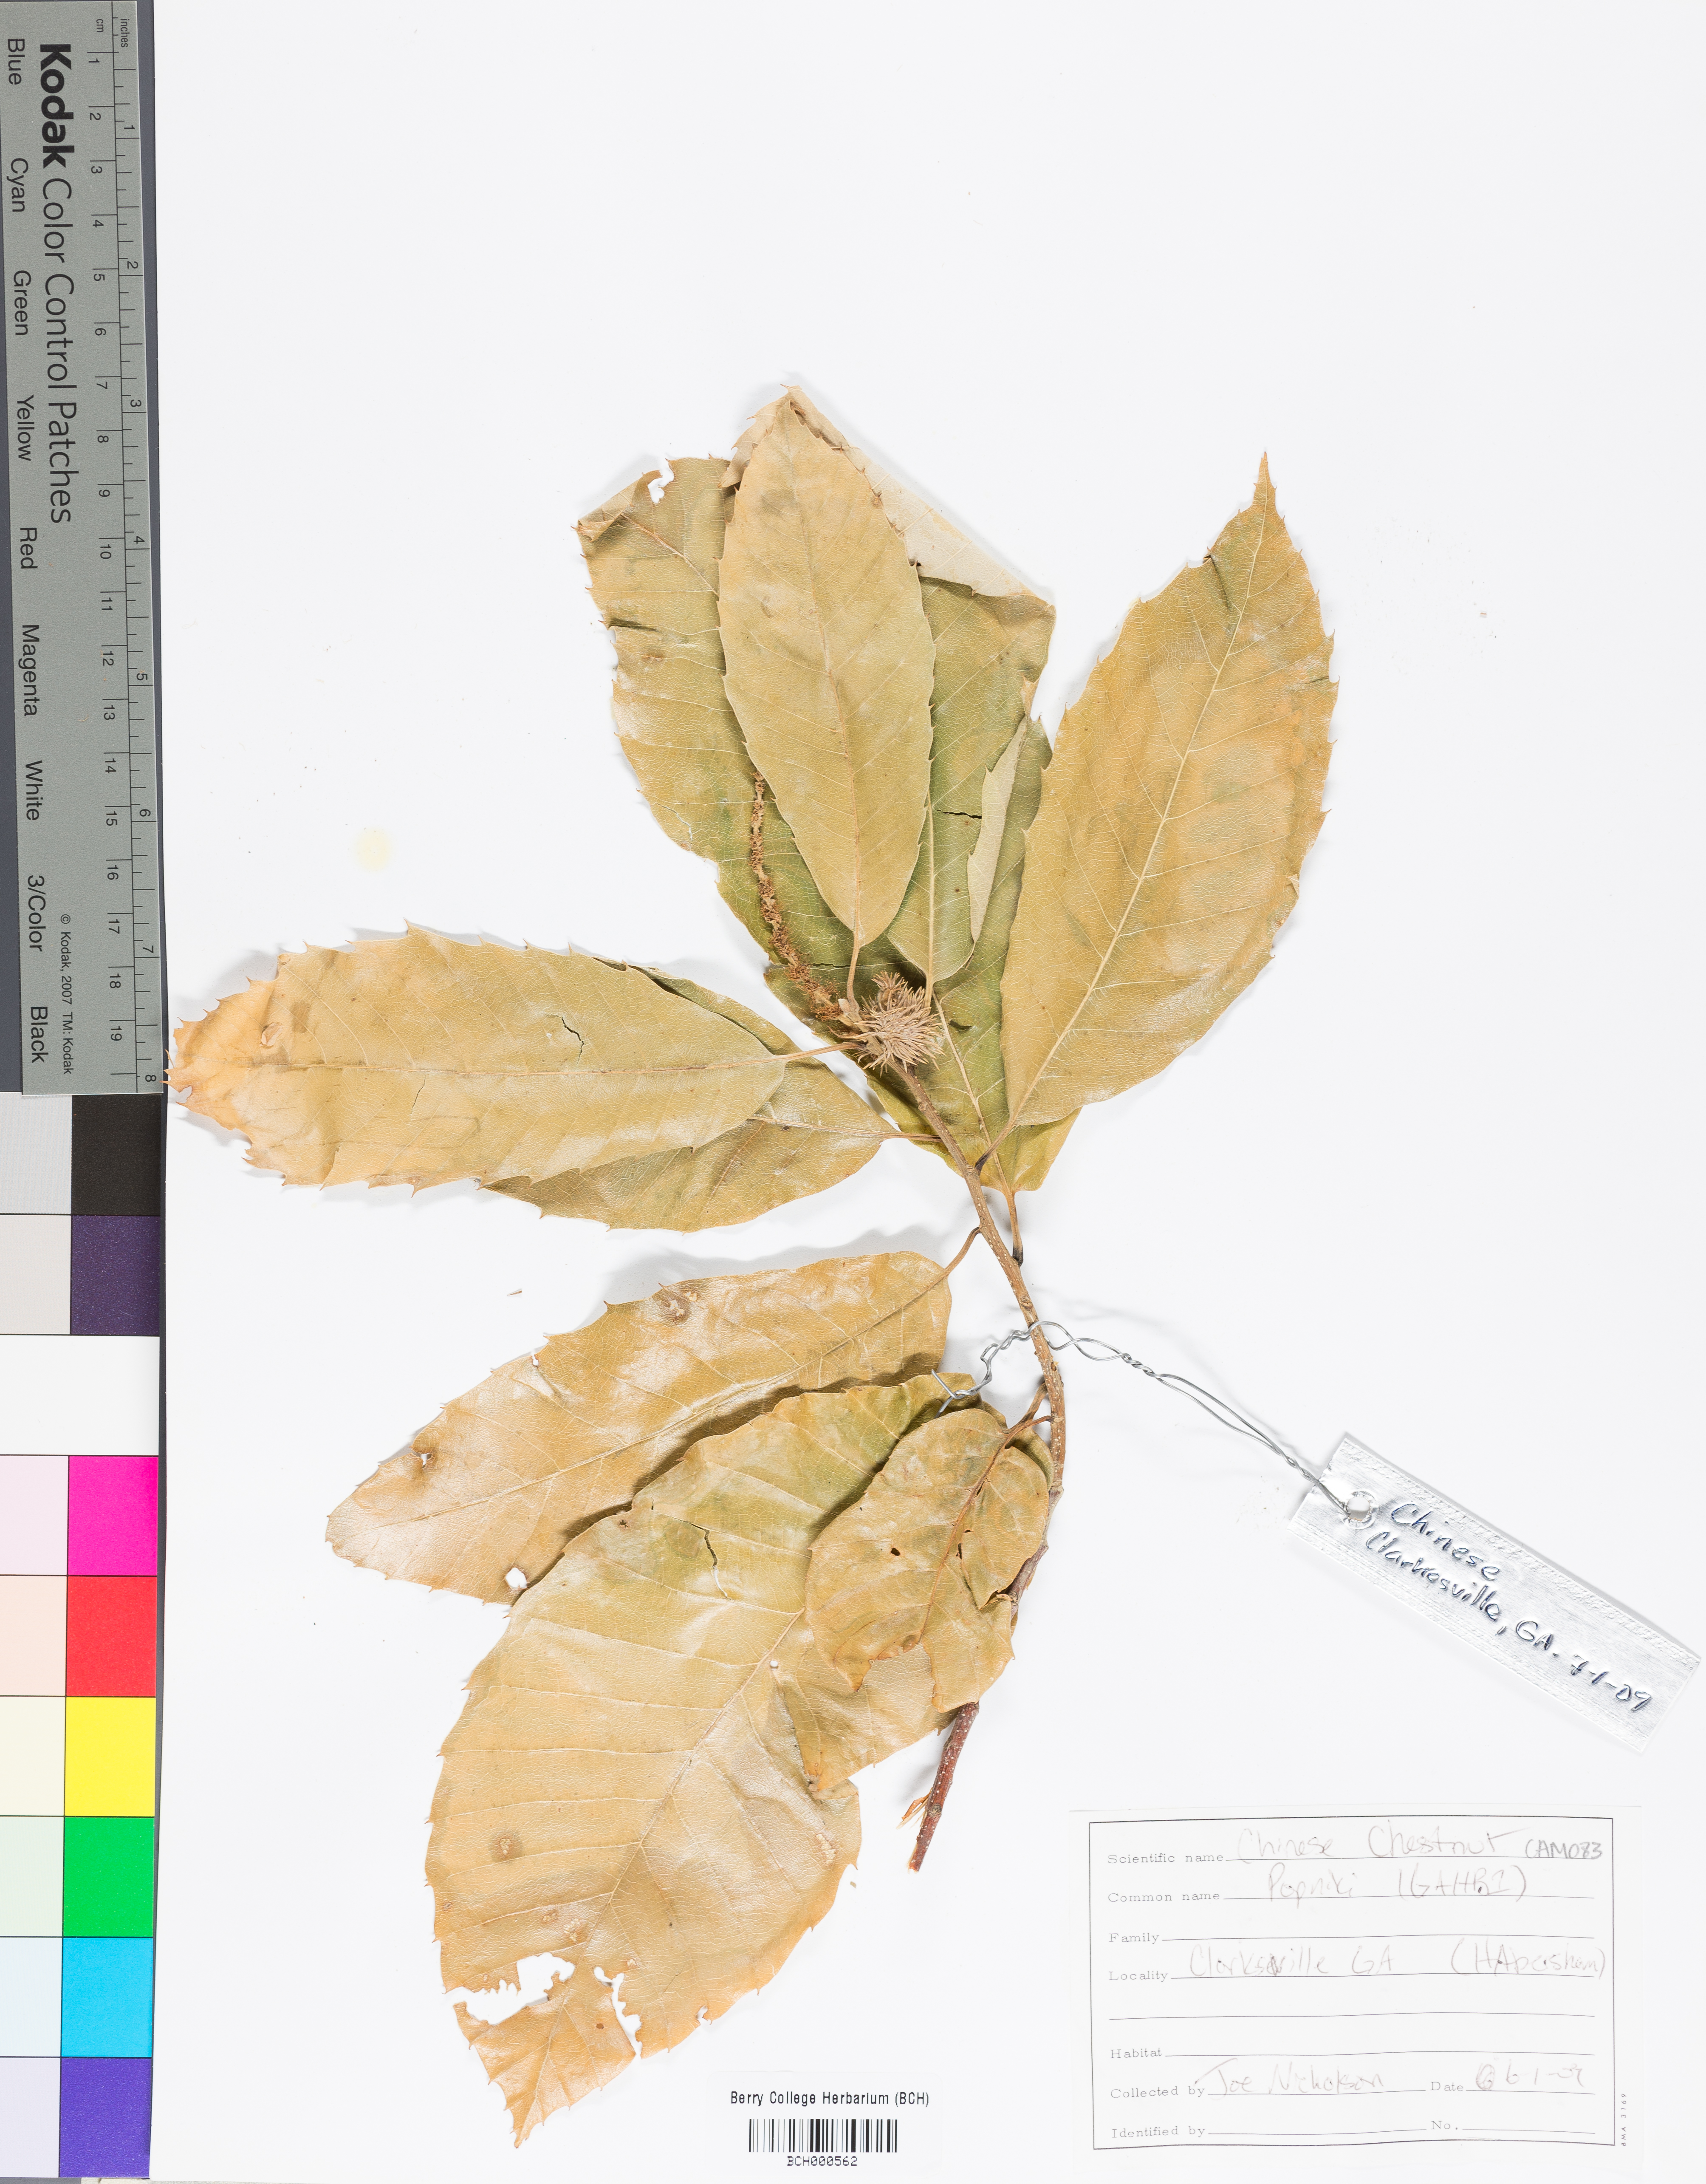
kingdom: Plantae
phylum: Tracheophyta
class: Magnoliopsida
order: Fagales
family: Fagaceae
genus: Castanea
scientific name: Castanea mollissima
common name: Chinese chestnut
